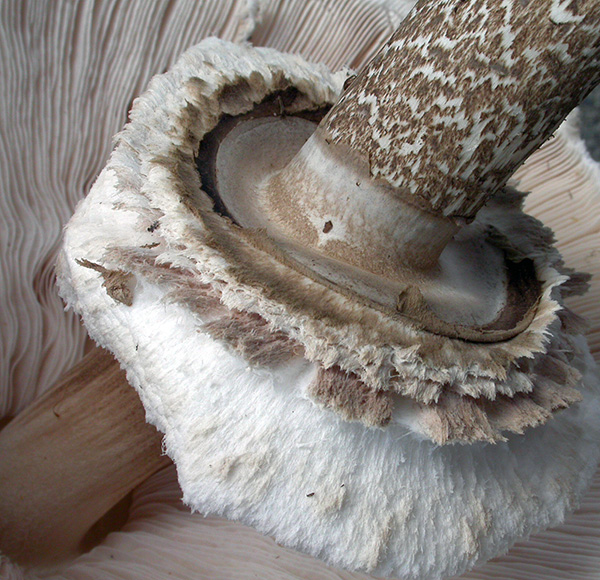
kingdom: Fungi
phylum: Basidiomycota
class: Agaricomycetes
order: Agaricales
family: Agaricaceae
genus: Macrolepiota
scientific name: Macrolepiota procera
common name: stor kæmpeparasolhat
